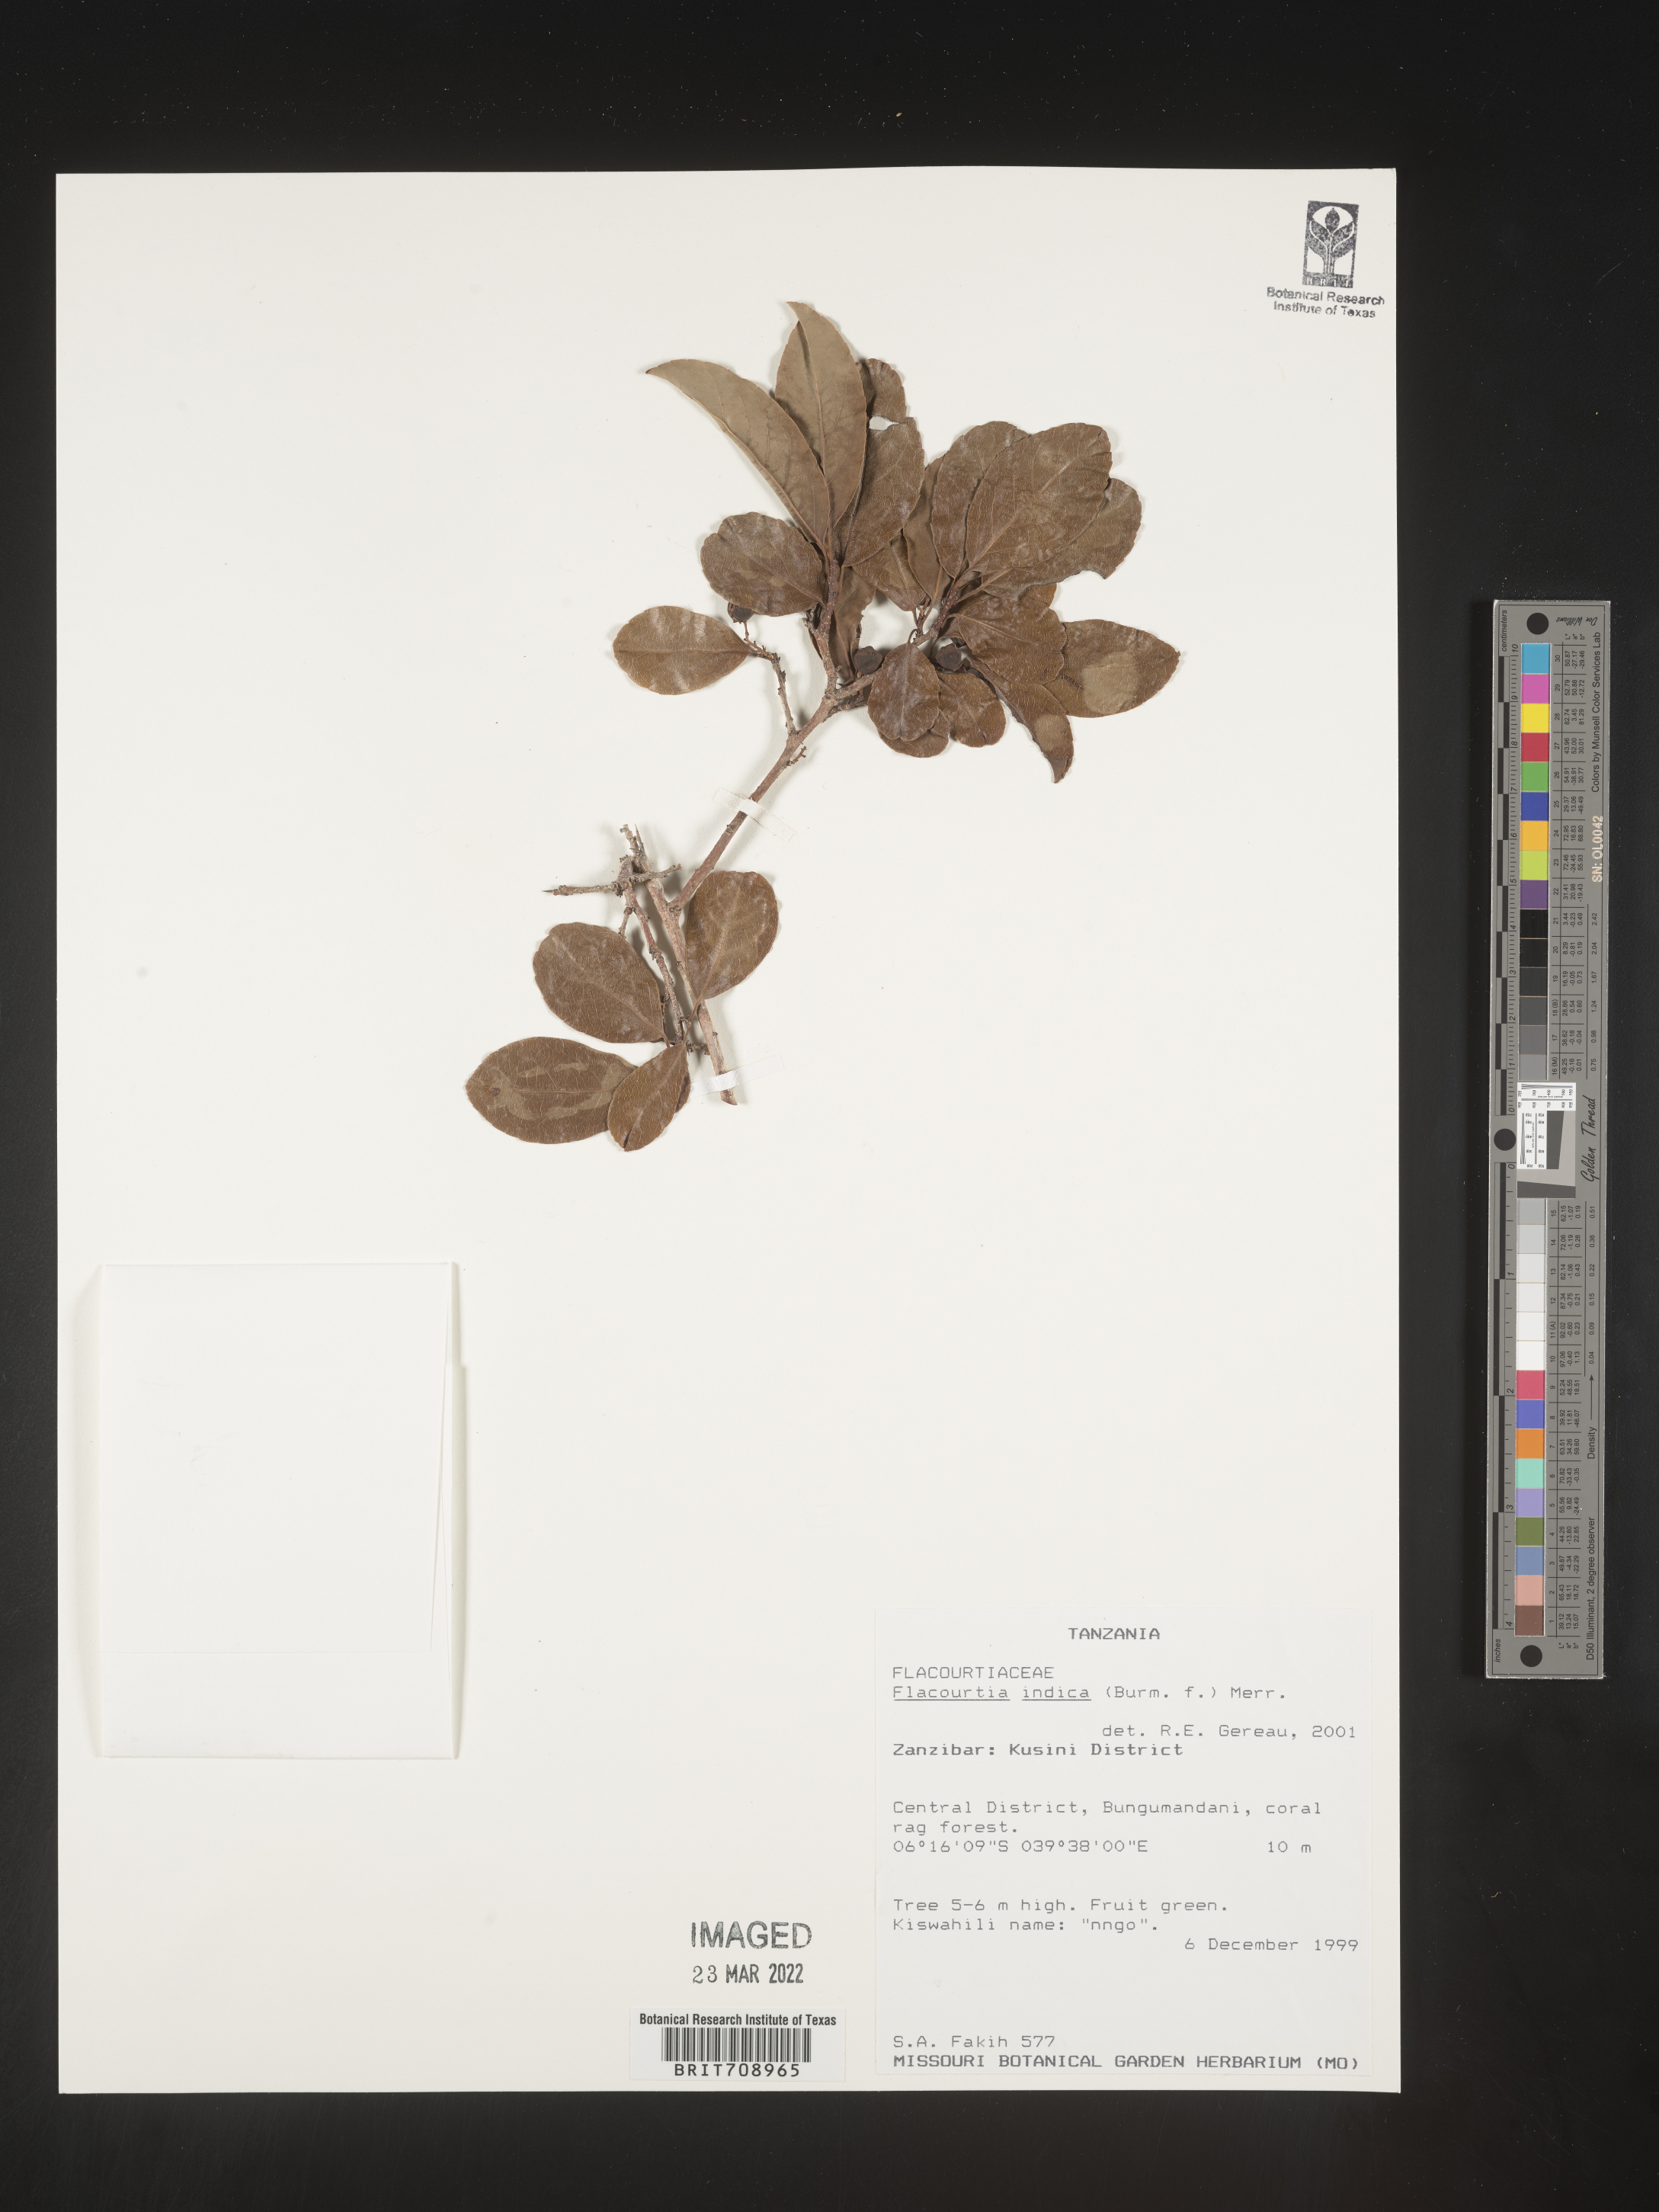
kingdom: Plantae
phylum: Tracheophyta
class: Magnoliopsida
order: Malpighiales
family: Salicaceae
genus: Flacourtia
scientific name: Flacourtia
